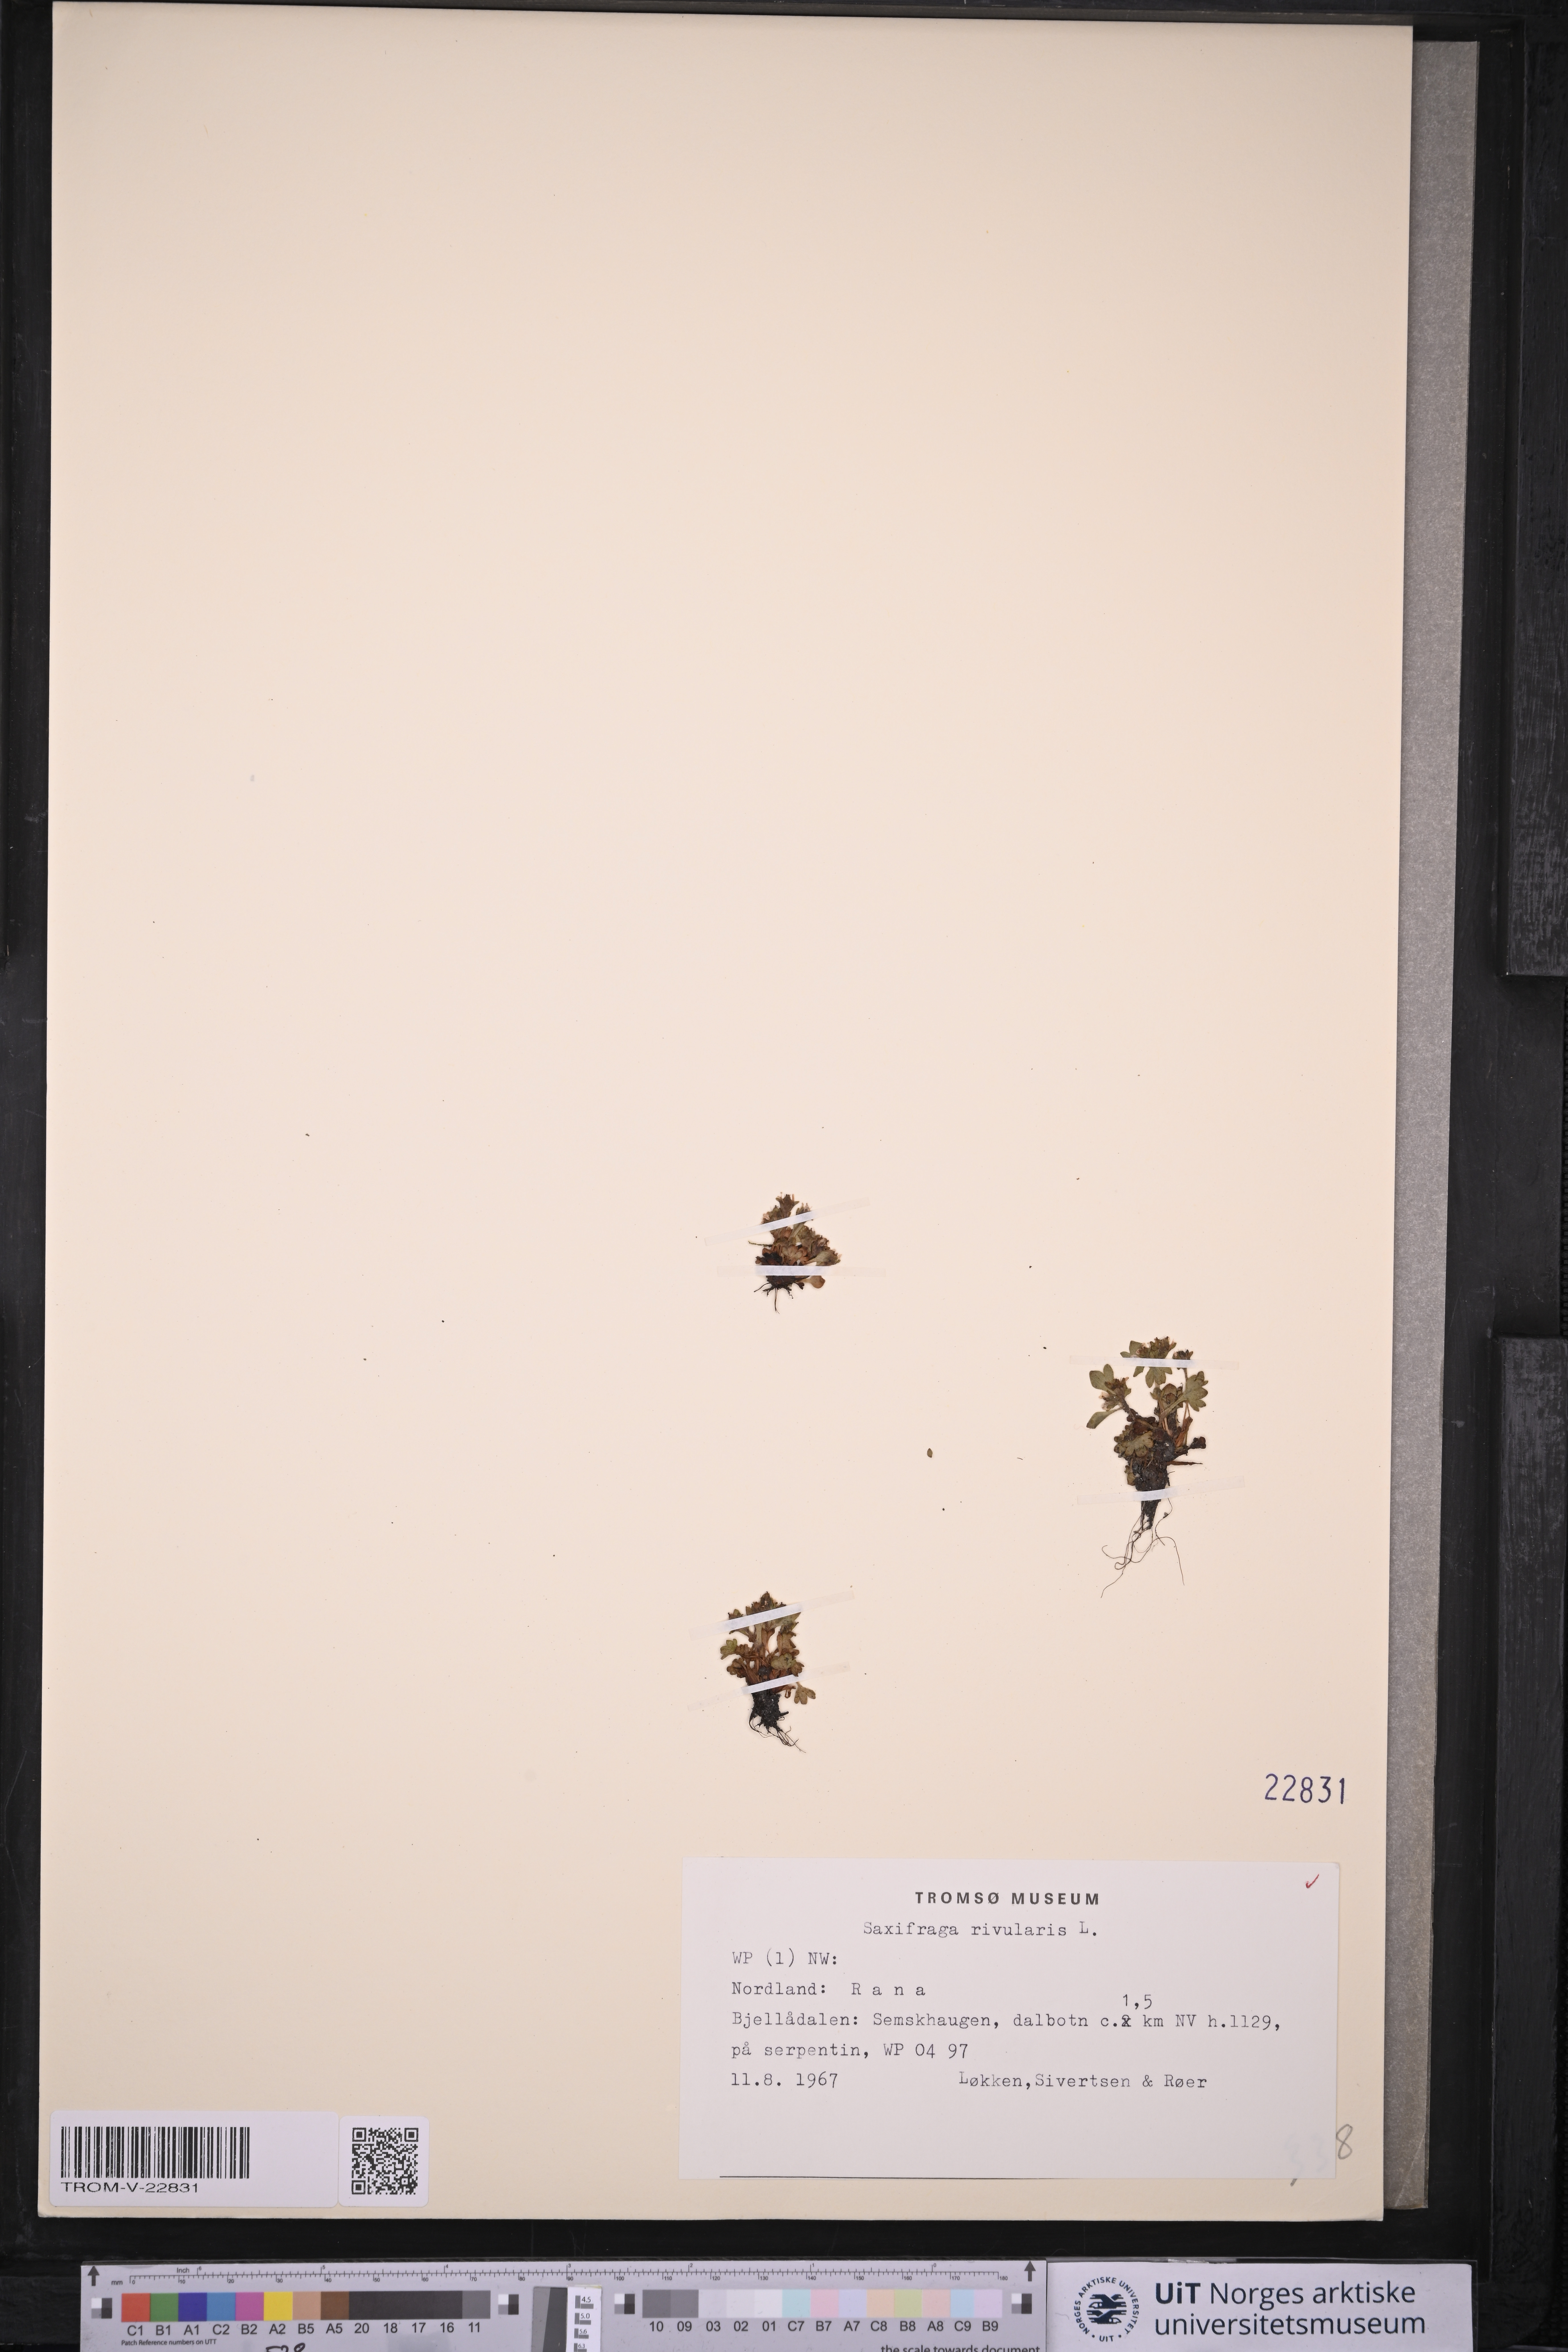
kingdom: Plantae
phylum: Tracheophyta
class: Magnoliopsida
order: Saxifragales
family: Saxifragaceae
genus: Saxifraga
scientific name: Saxifraga rivularis
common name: Highland saxifrage
